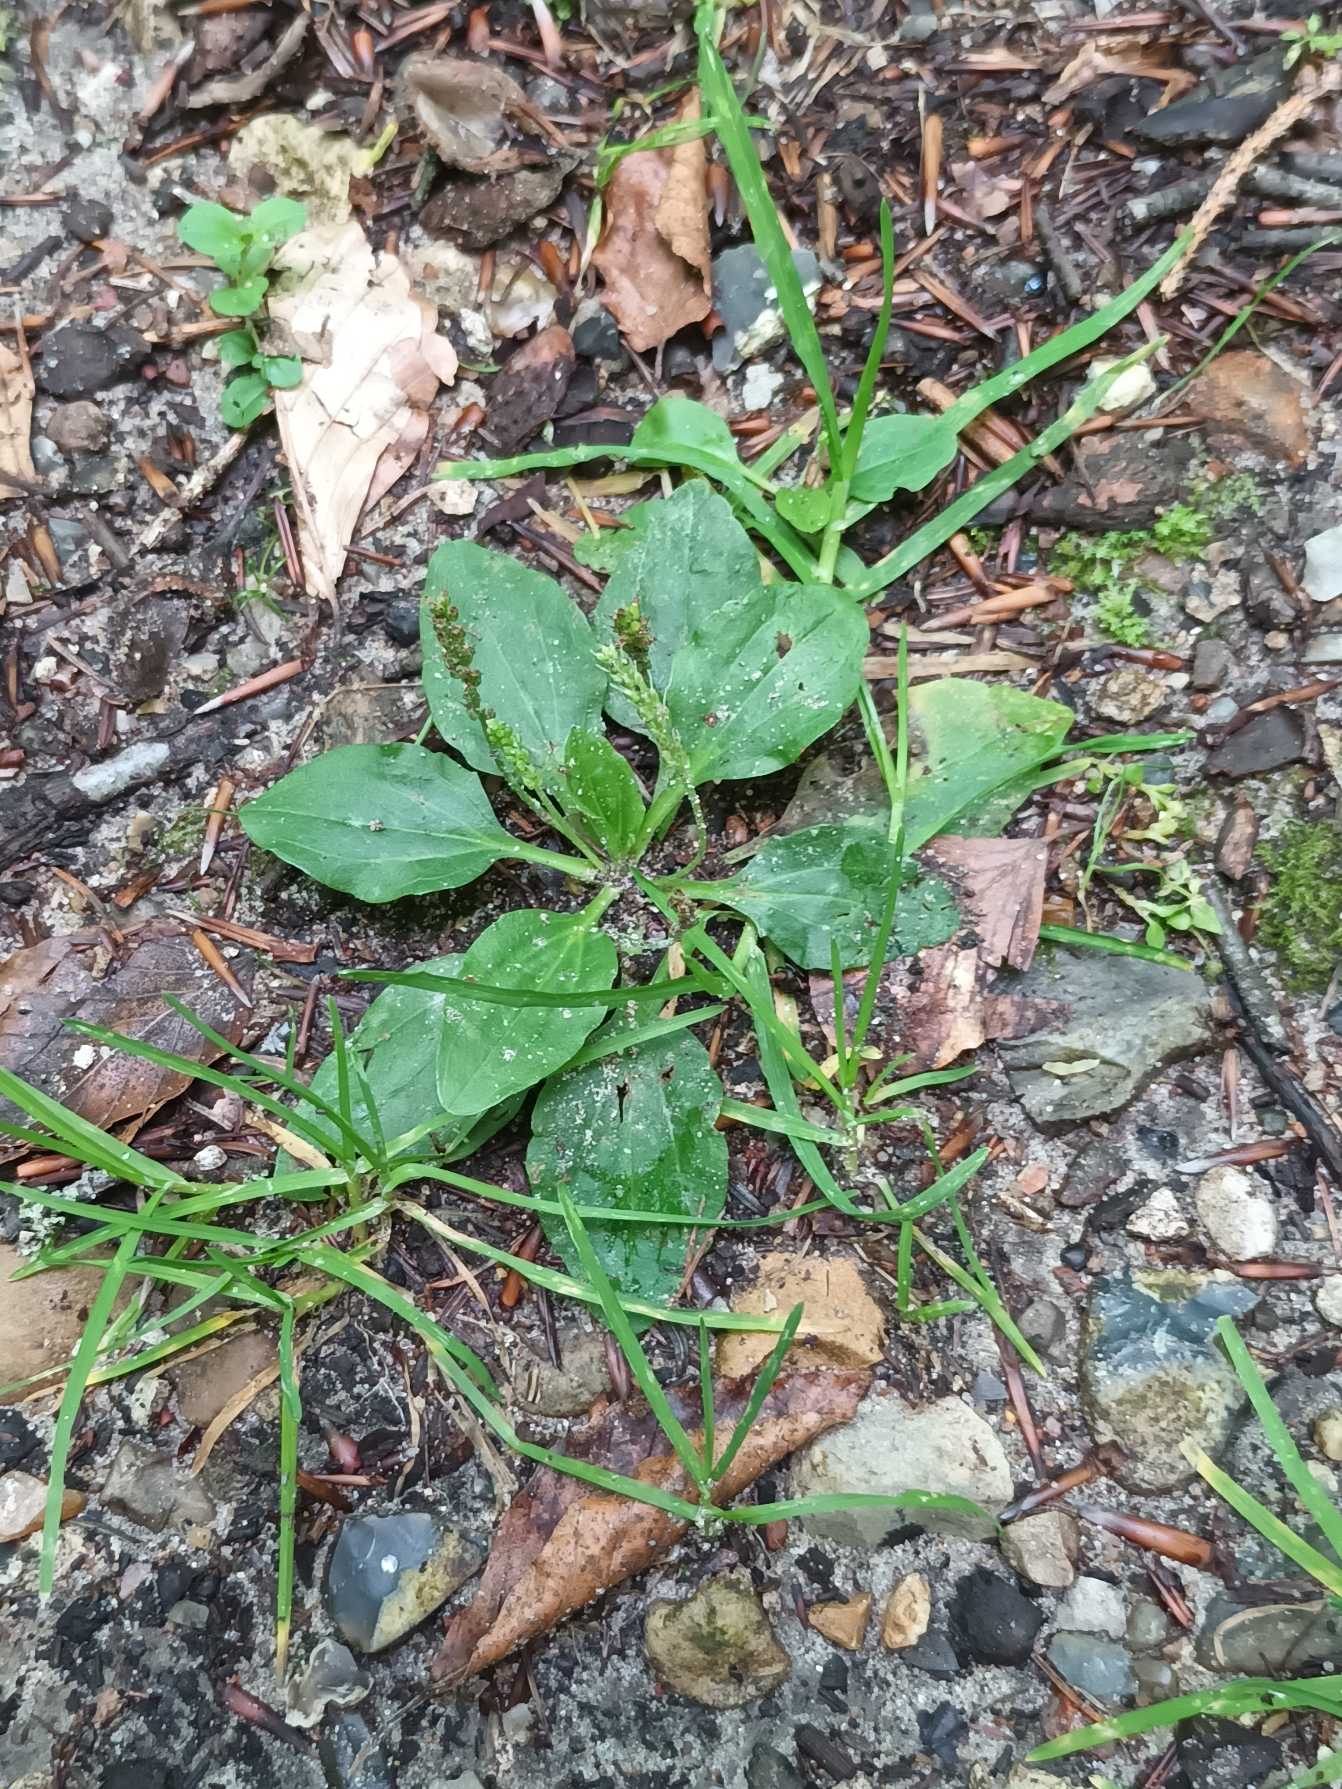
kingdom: Plantae
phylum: Tracheophyta
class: Magnoliopsida
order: Lamiales
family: Plantaginaceae
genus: Plantago
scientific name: Plantago major
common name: Glat vejbred
